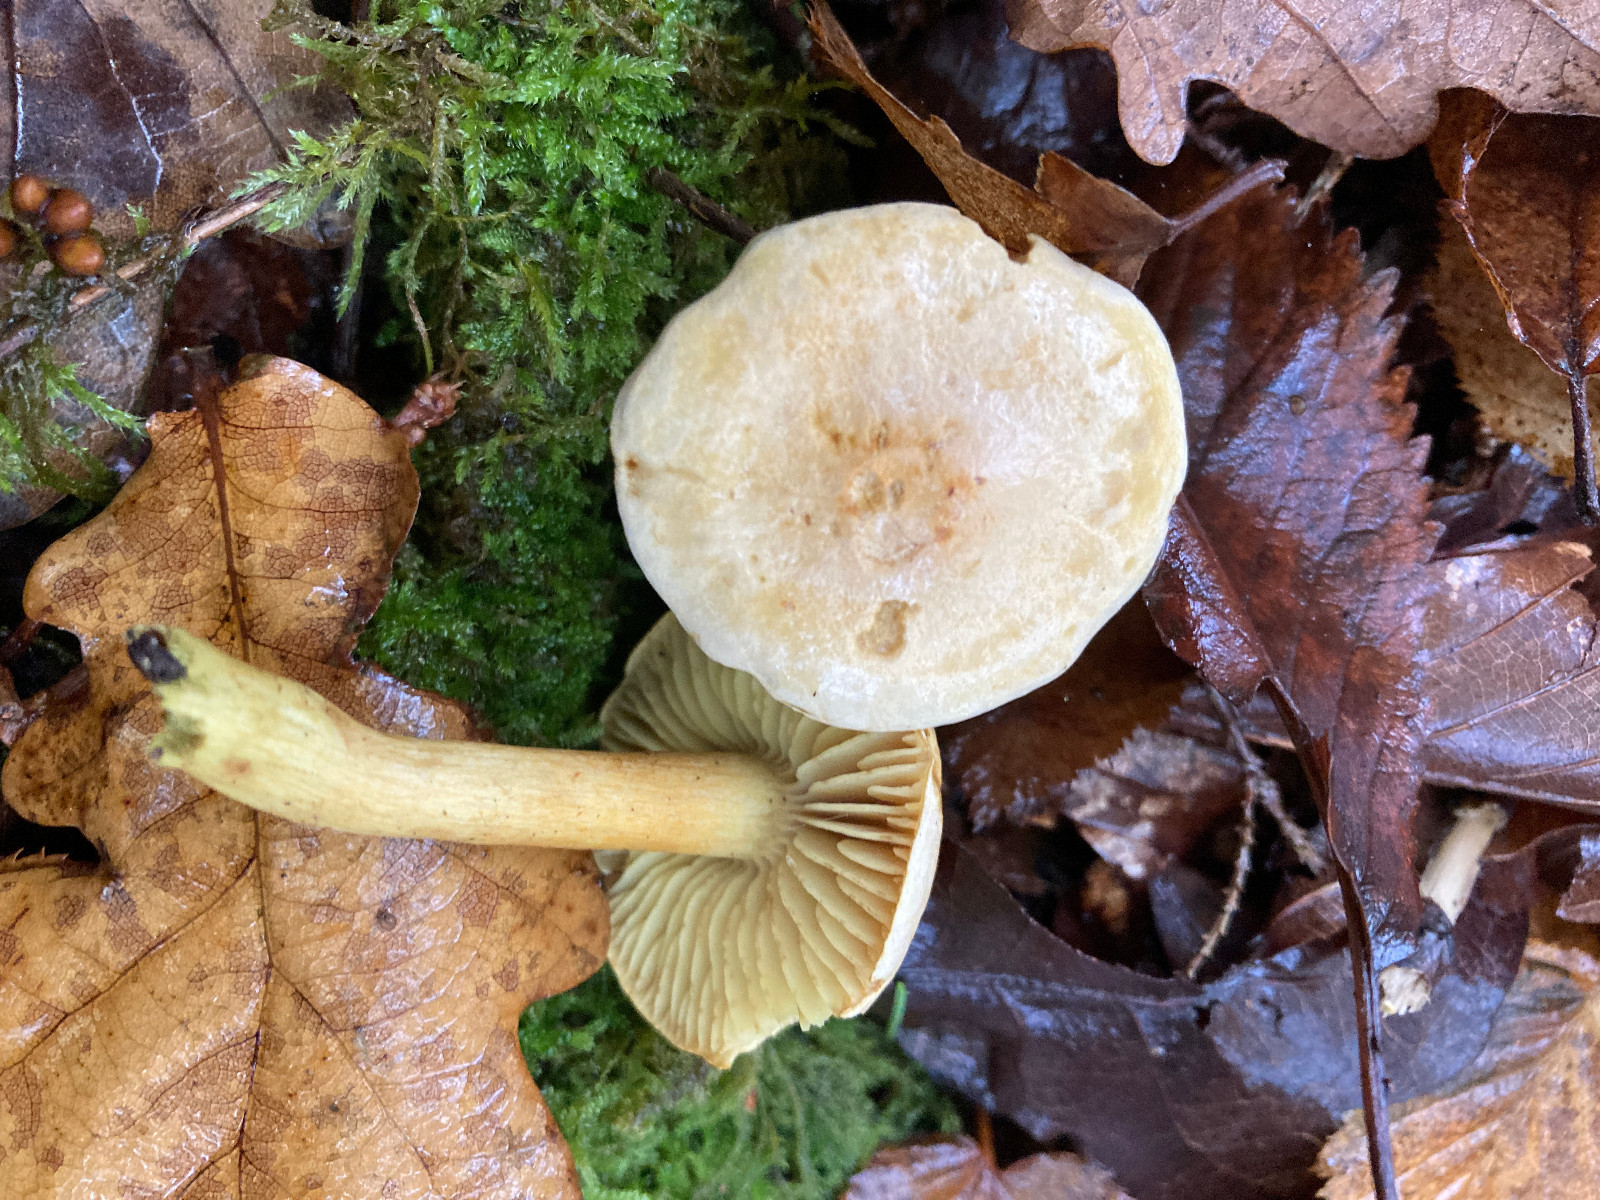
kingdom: Fungi
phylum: Basidiomycota
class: Agaricomycetes
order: Agaricales
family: Tricholomataceae
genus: Tricholoma
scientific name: Tricholoma sulphureum
